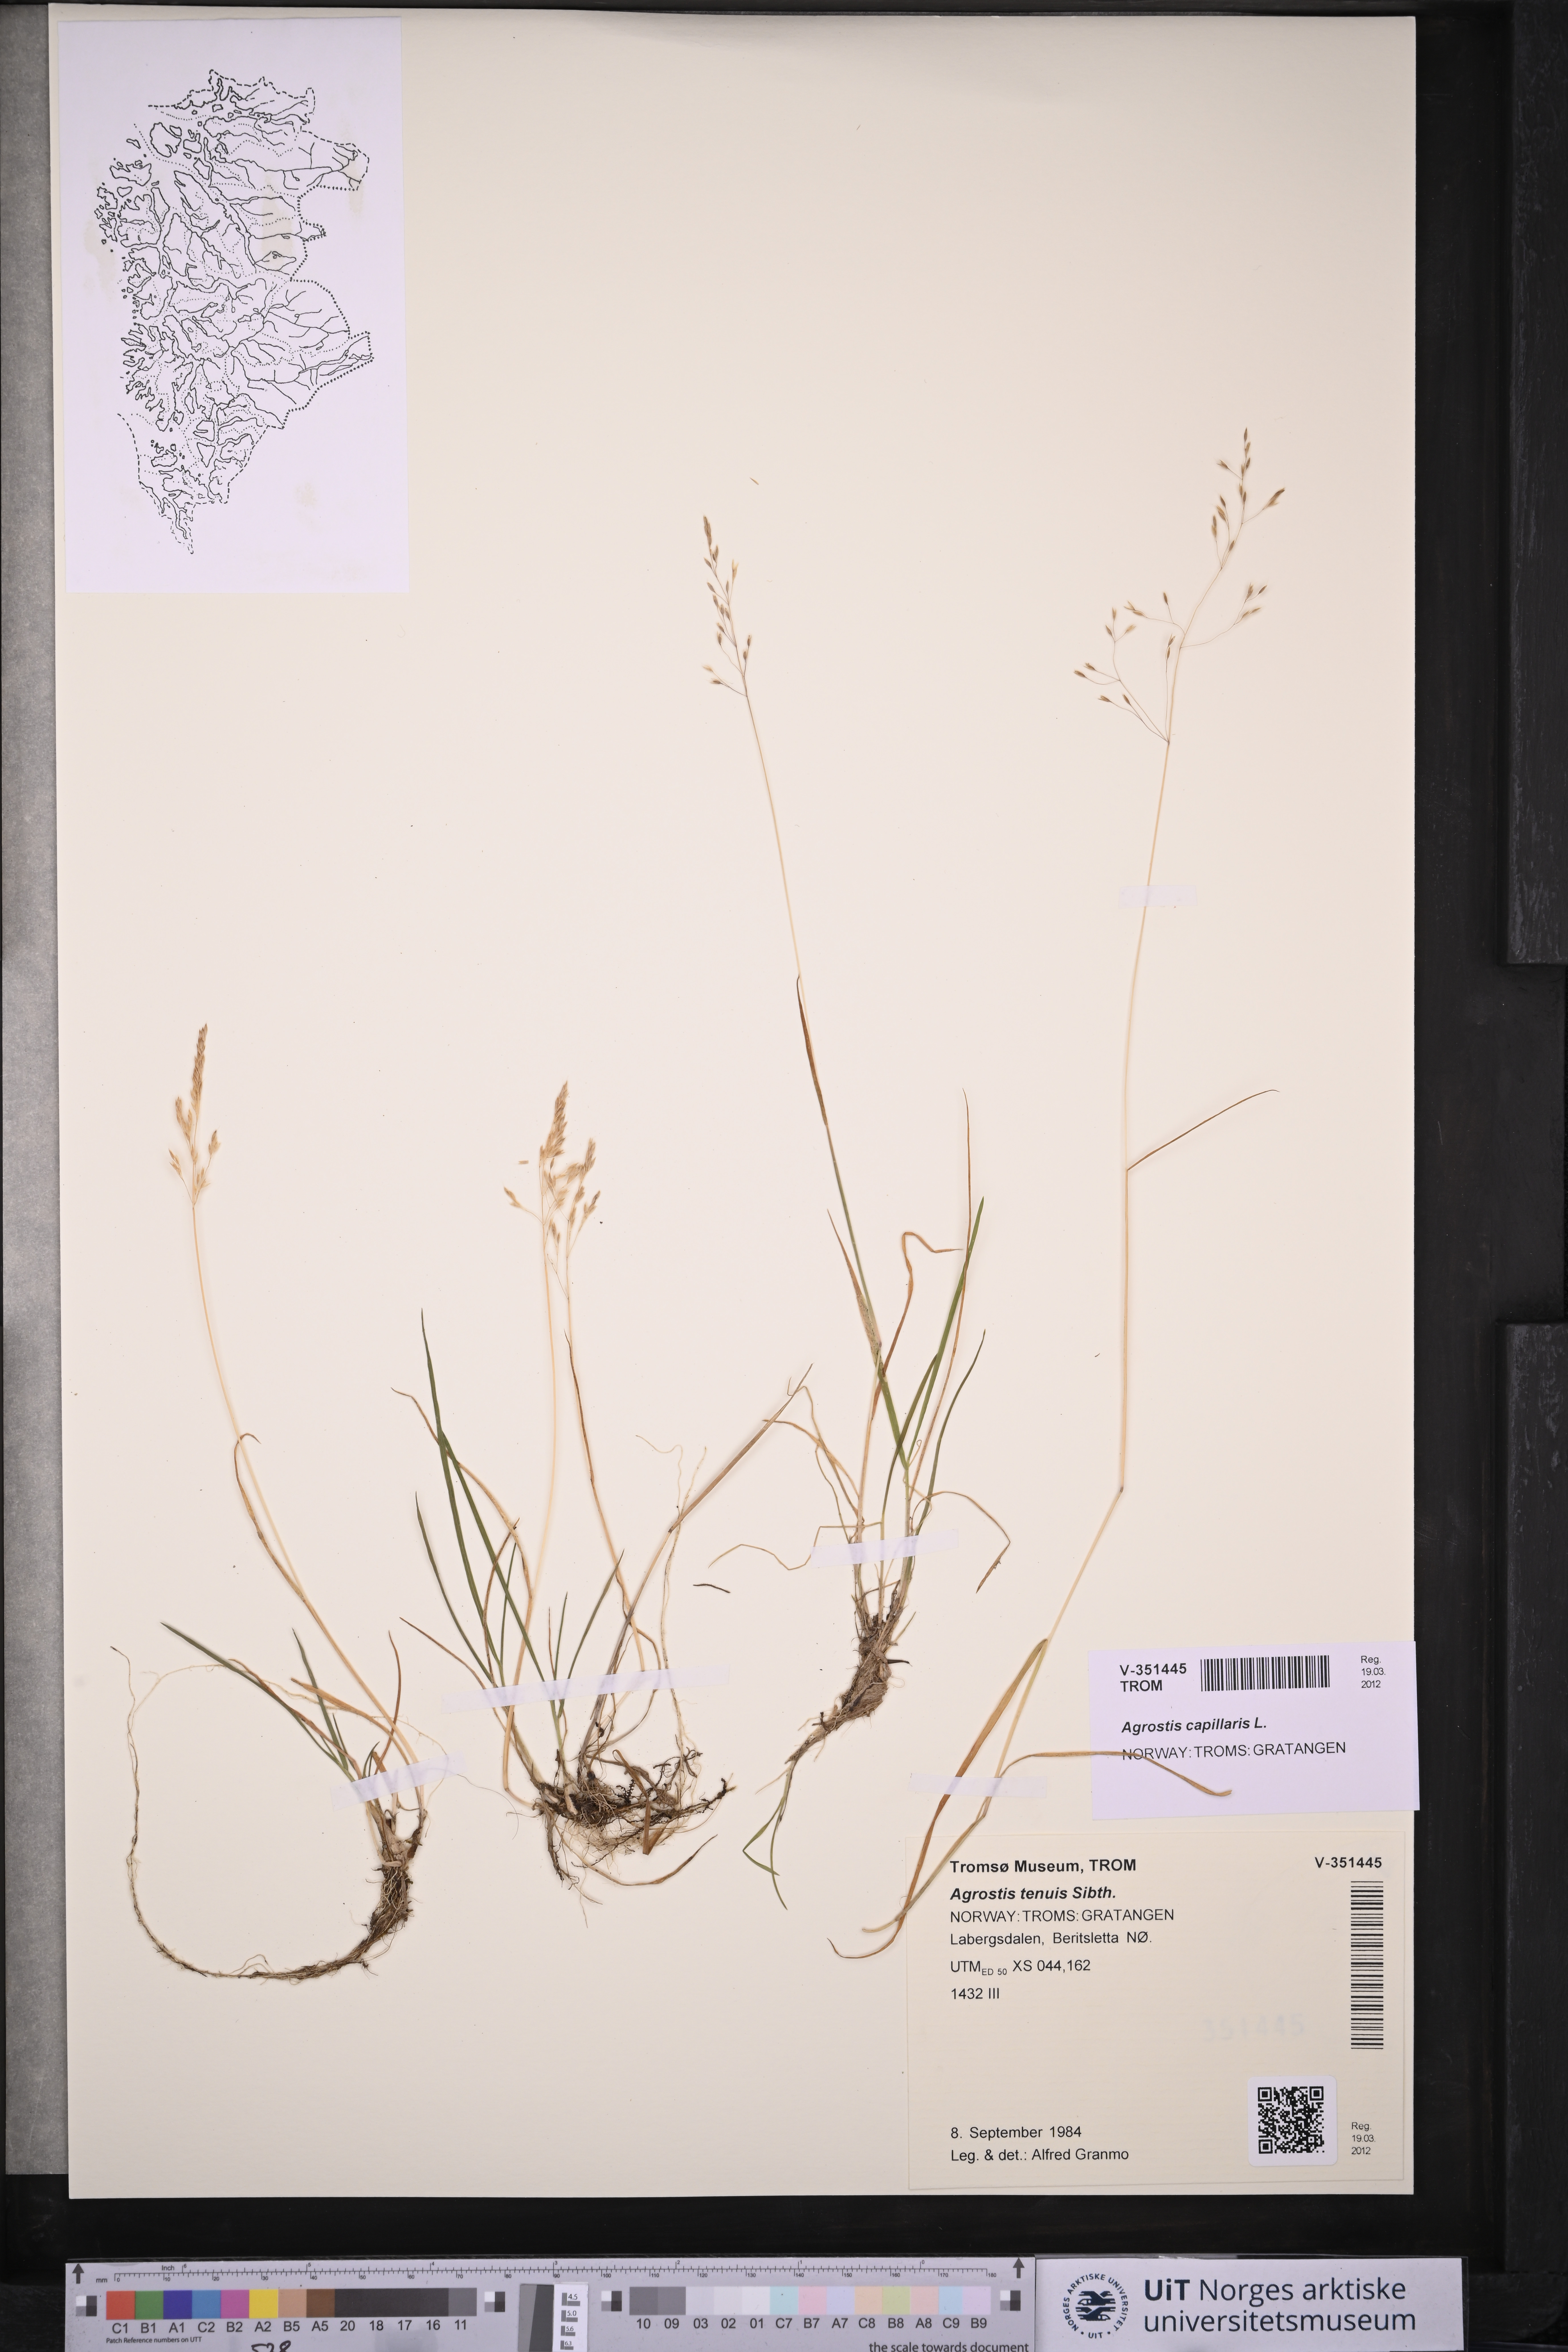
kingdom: Plantae
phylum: Tracheophyta
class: Liliopsida
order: Poales
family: Poaceae
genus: Agrostis
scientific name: Agrostis capillaris
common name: Colonial bentgrass
